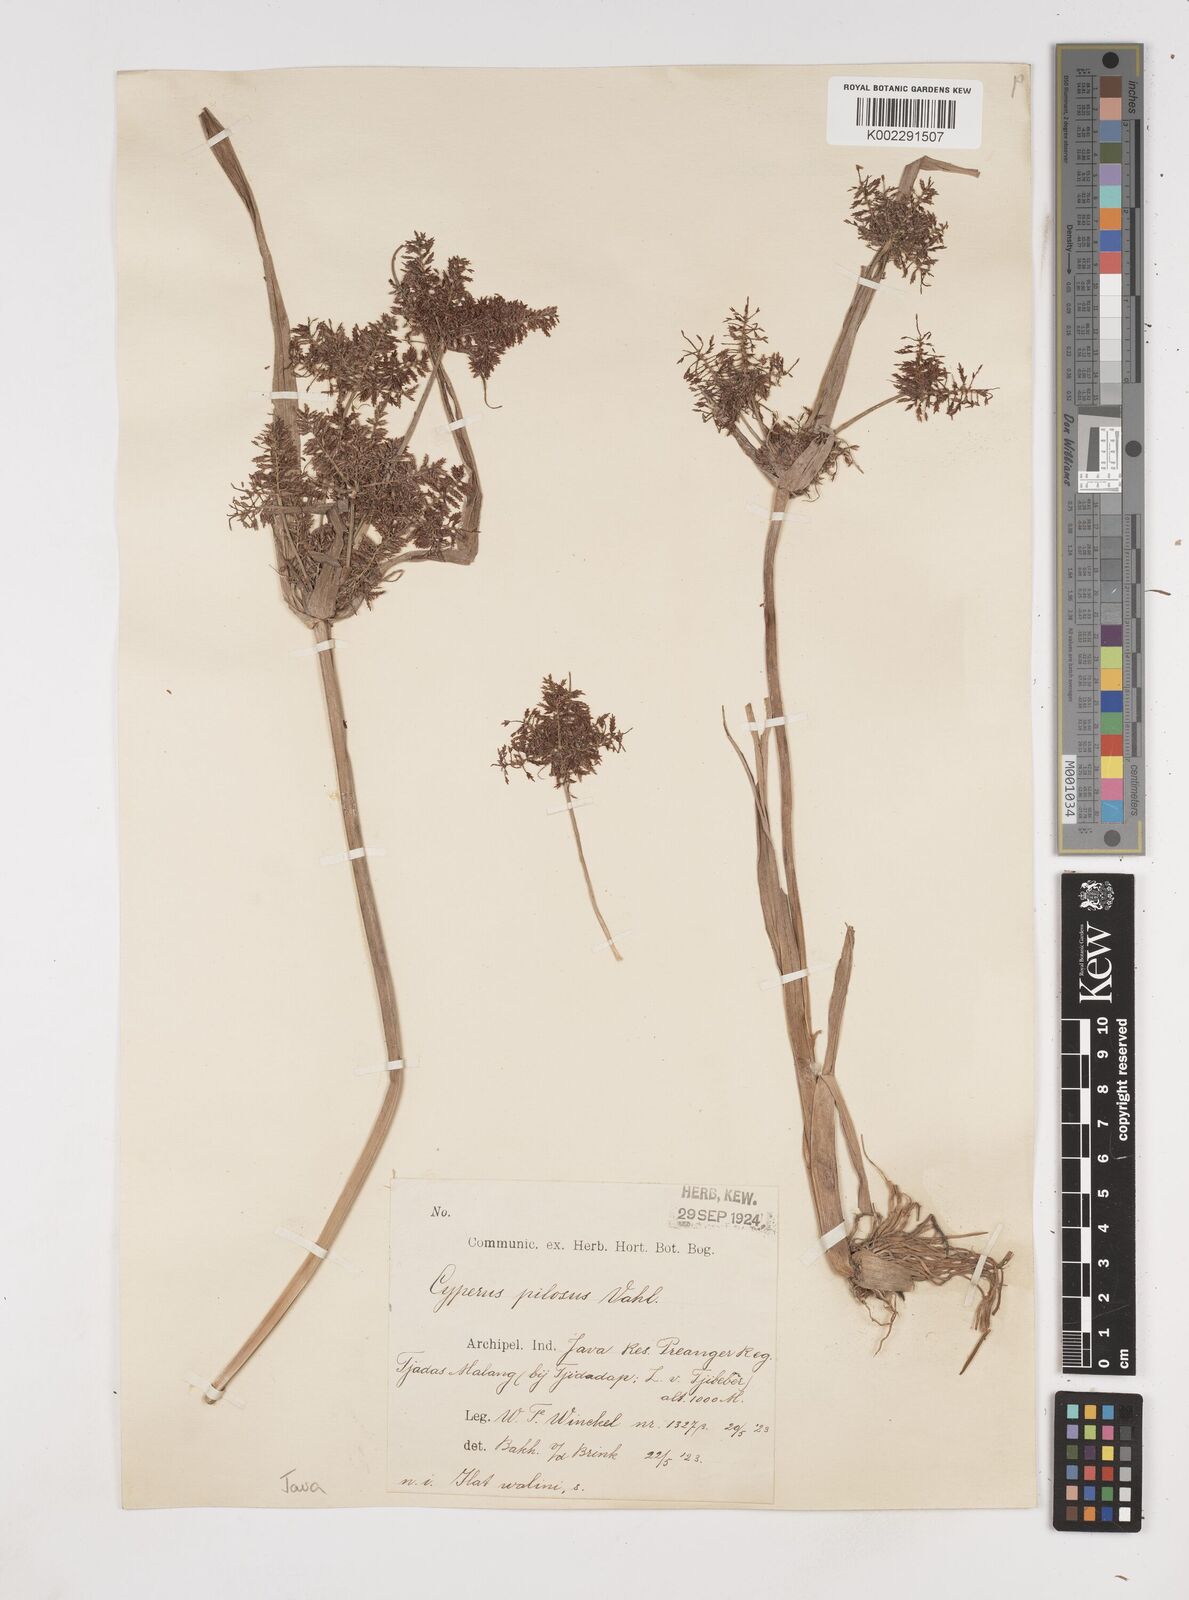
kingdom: Plantae
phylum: Tracheophyta
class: Liliopsida
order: Poales
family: Cyperaceae
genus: Cyperus
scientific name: Cyperus pilosus
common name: Fuzzy flatsedge
